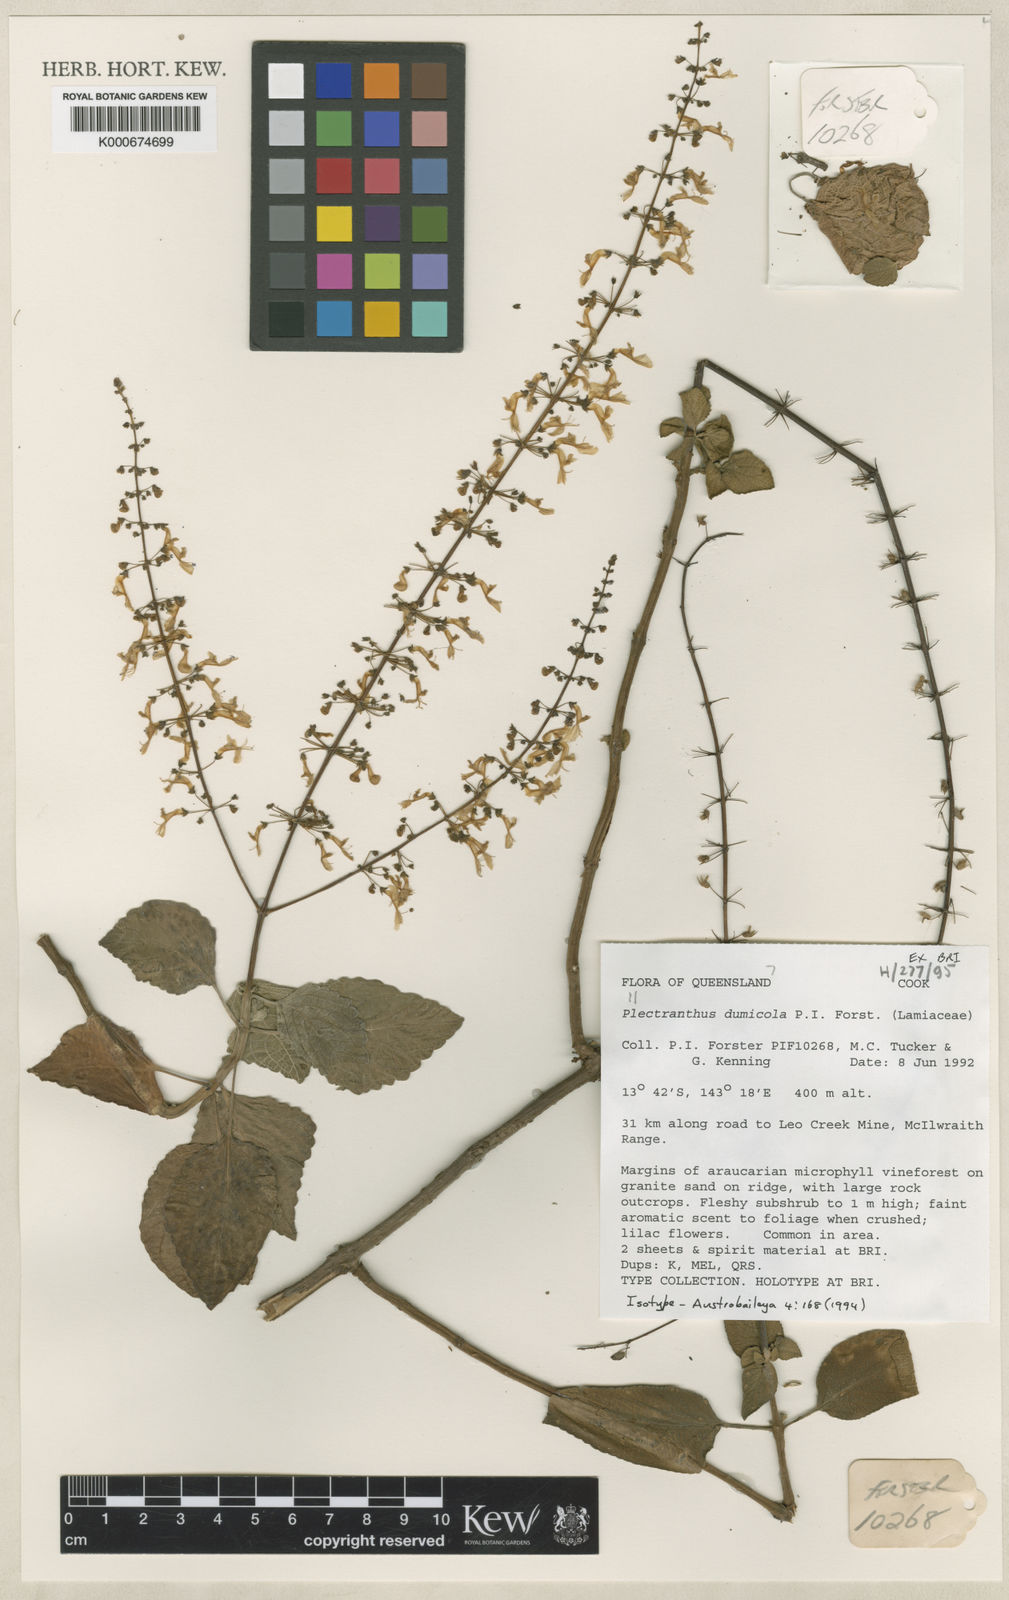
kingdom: Plantae
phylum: Tracheophyta
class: Magnoliopsida
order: Lamiales
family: Lamiaceae
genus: Coleus
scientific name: Coleus dumicola
